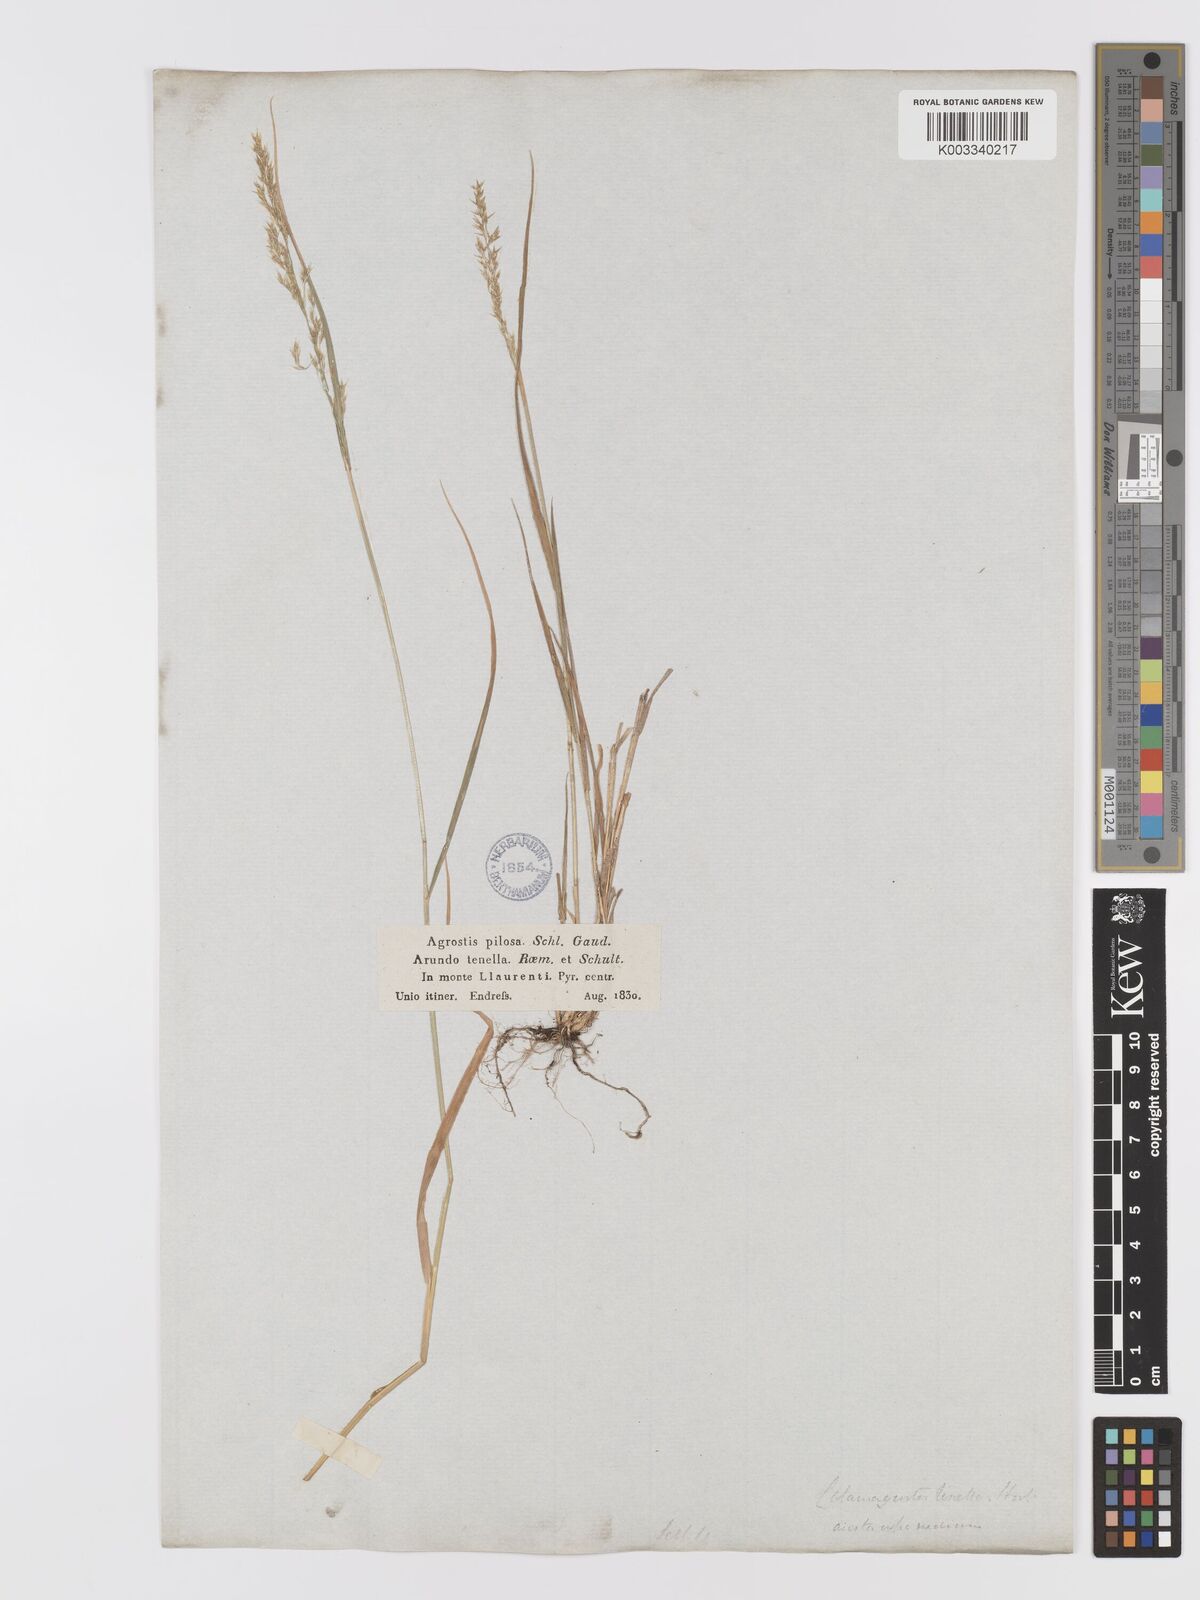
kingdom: Plantae
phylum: Tracheophyta
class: Liliopsida
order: Poales
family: Poaceae
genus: Agrostis
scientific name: Agrostis schraderiana
